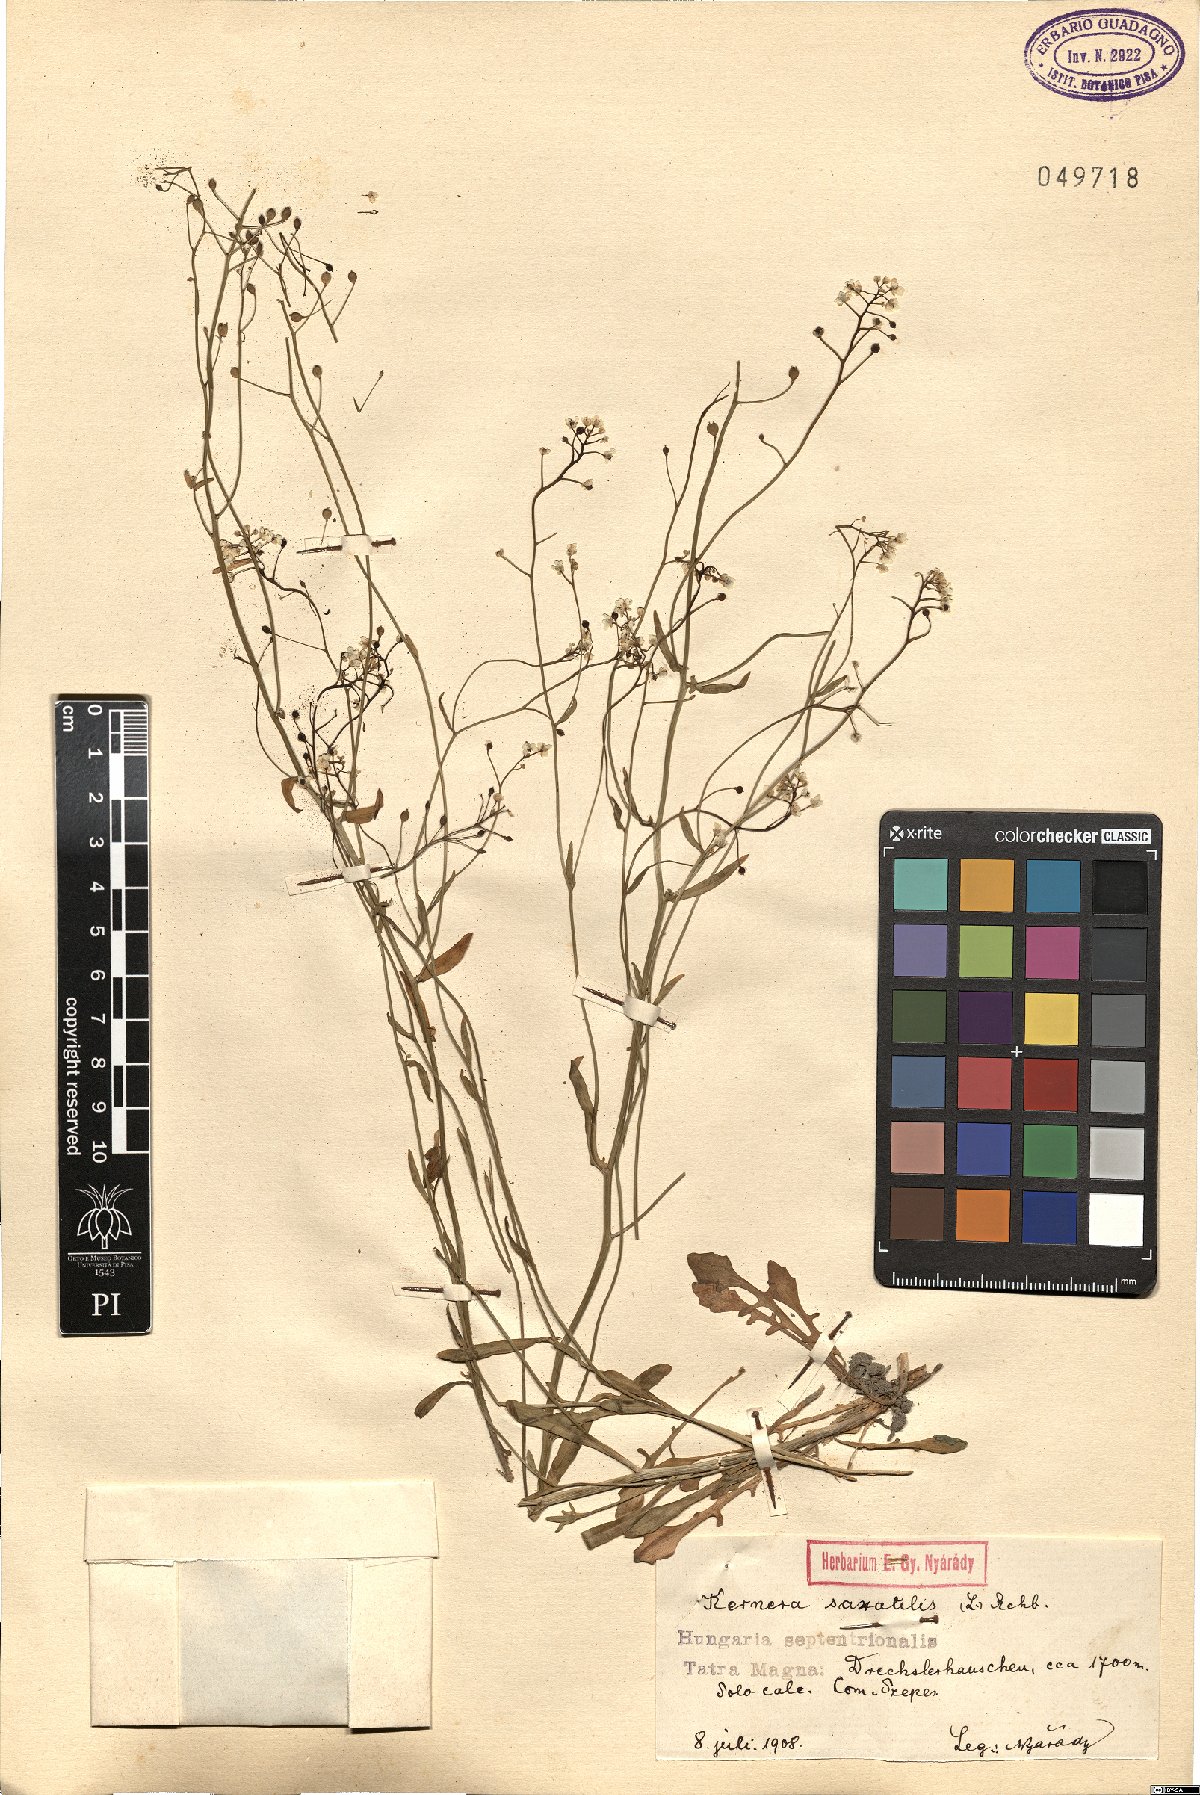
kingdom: Plantae
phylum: Tracheophyta
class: Magnoliopsida
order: Brassicales
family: Brassicaceae
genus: Kernera
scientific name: Kernera saxatilis
